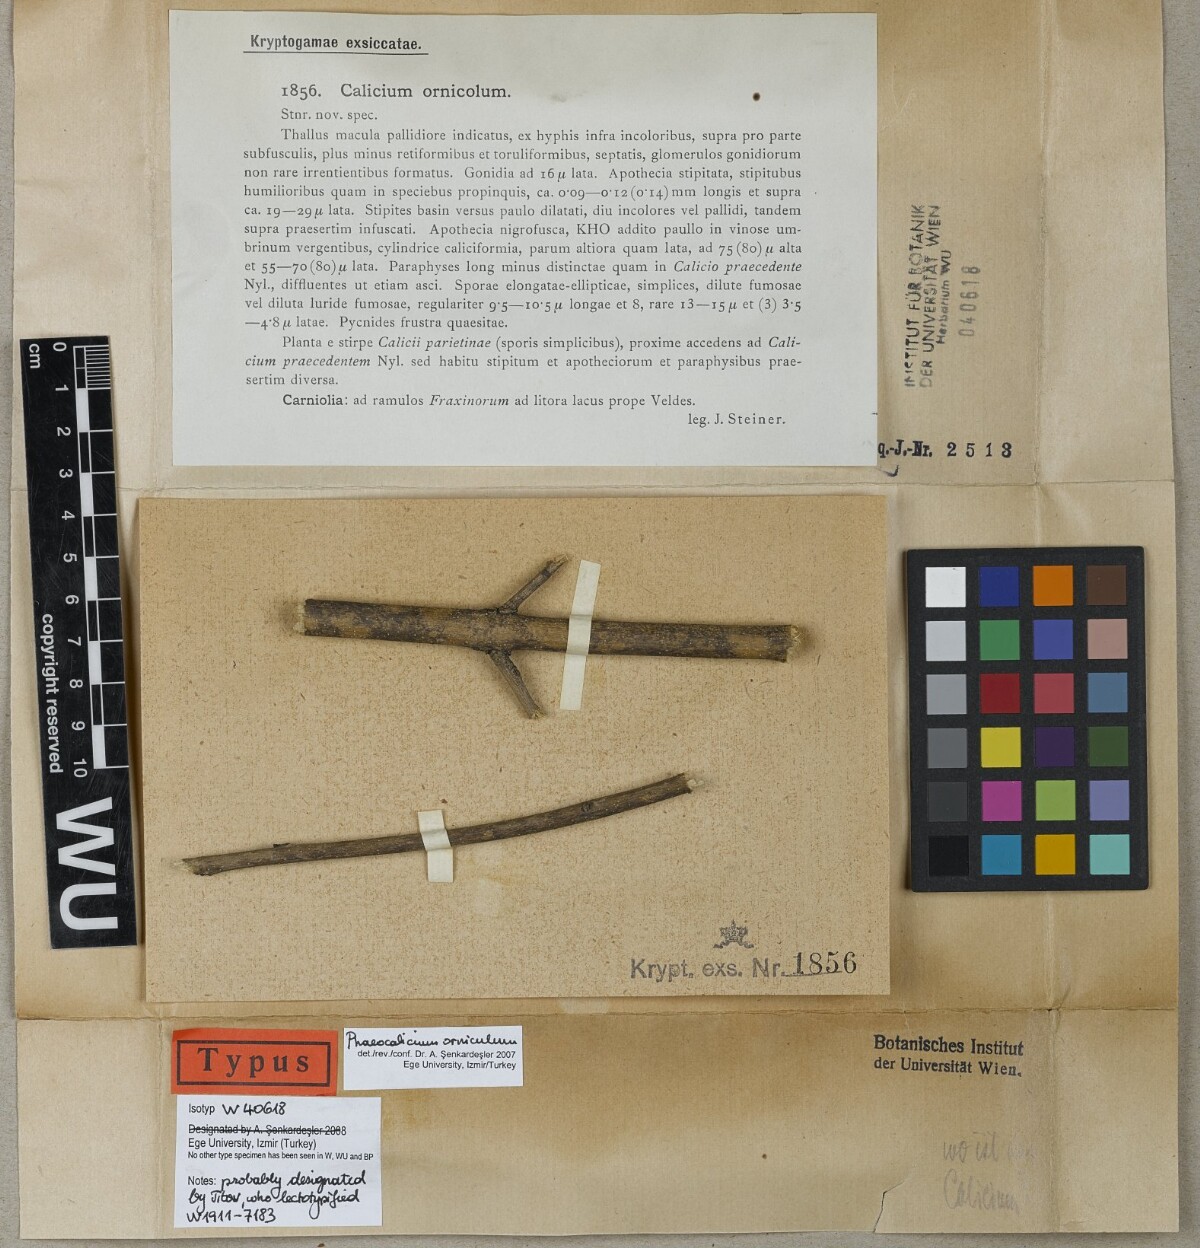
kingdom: Fungi
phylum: Ascomycota
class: Eurotiomycetes
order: Mycocaliciales
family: Mycocaliciaceae
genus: Mycocalicium
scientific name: Mycocalicium ornicolum
